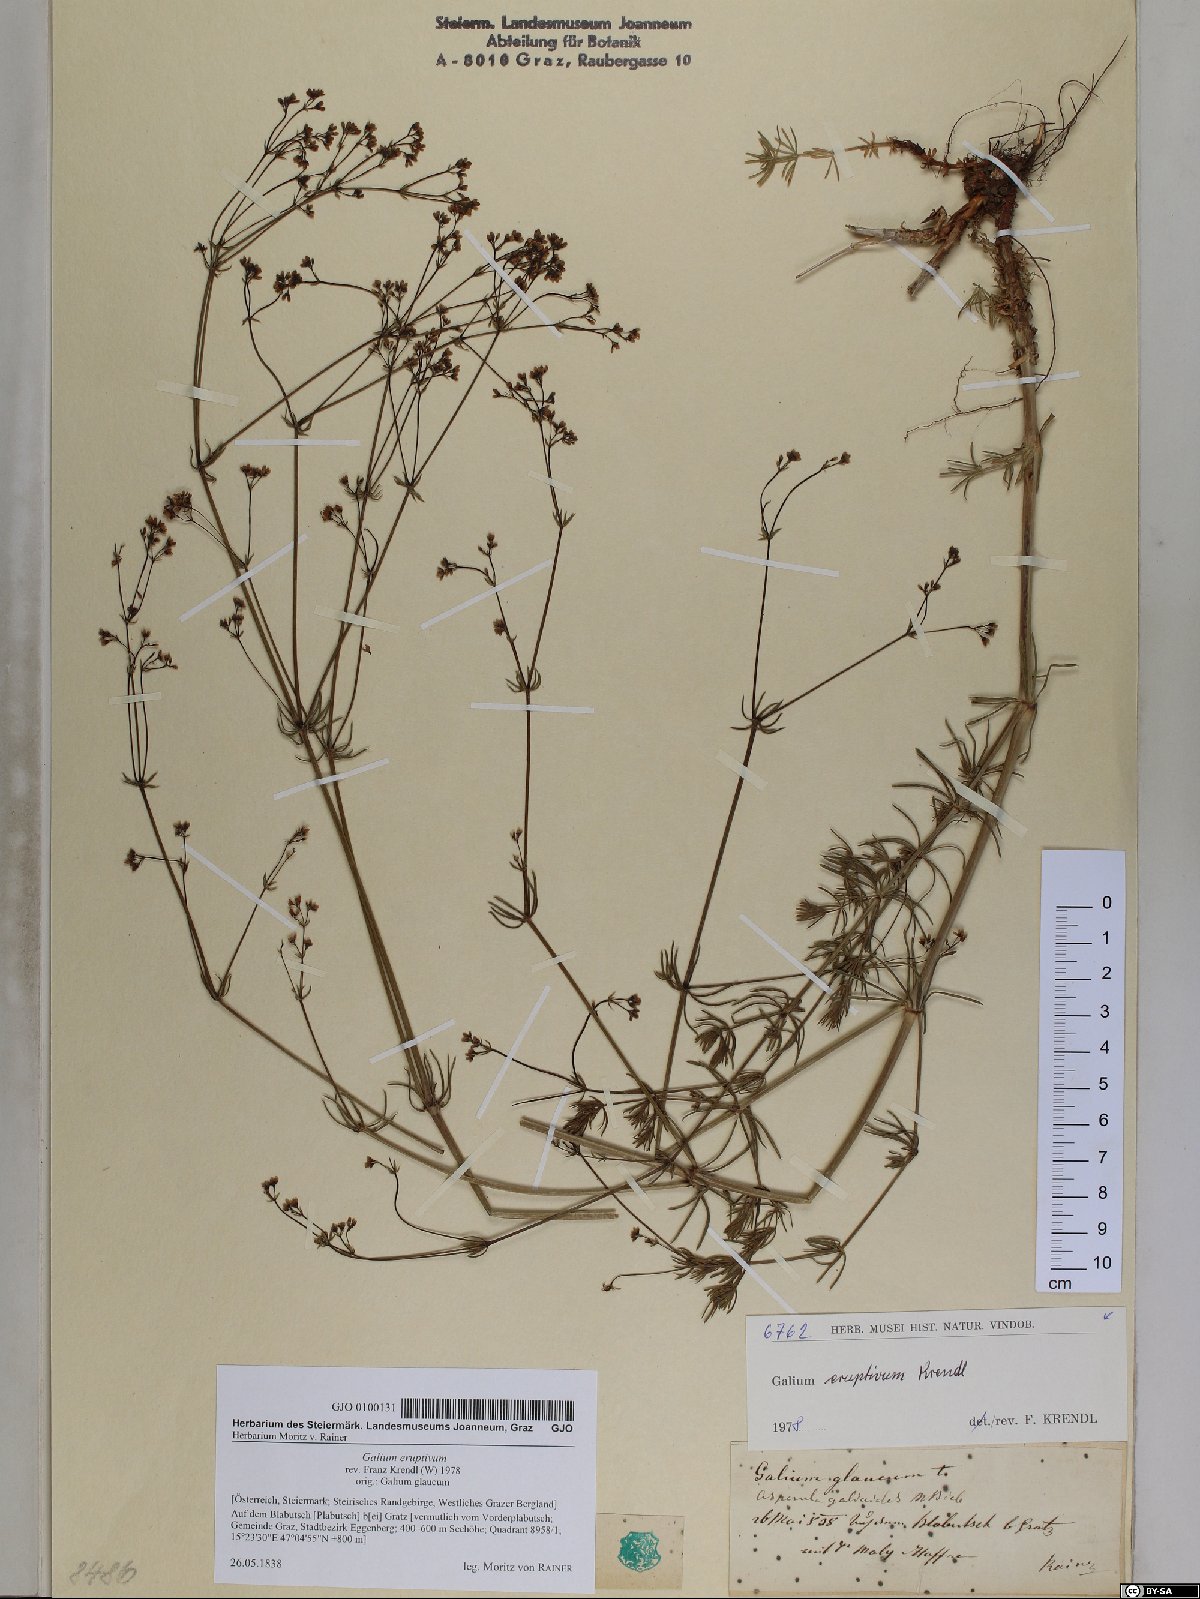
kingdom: Plantae
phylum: Tracheophyta
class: Magnoliopsida
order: Gentianales
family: Rubiaceae
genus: Galium
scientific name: Galium eruptivum
